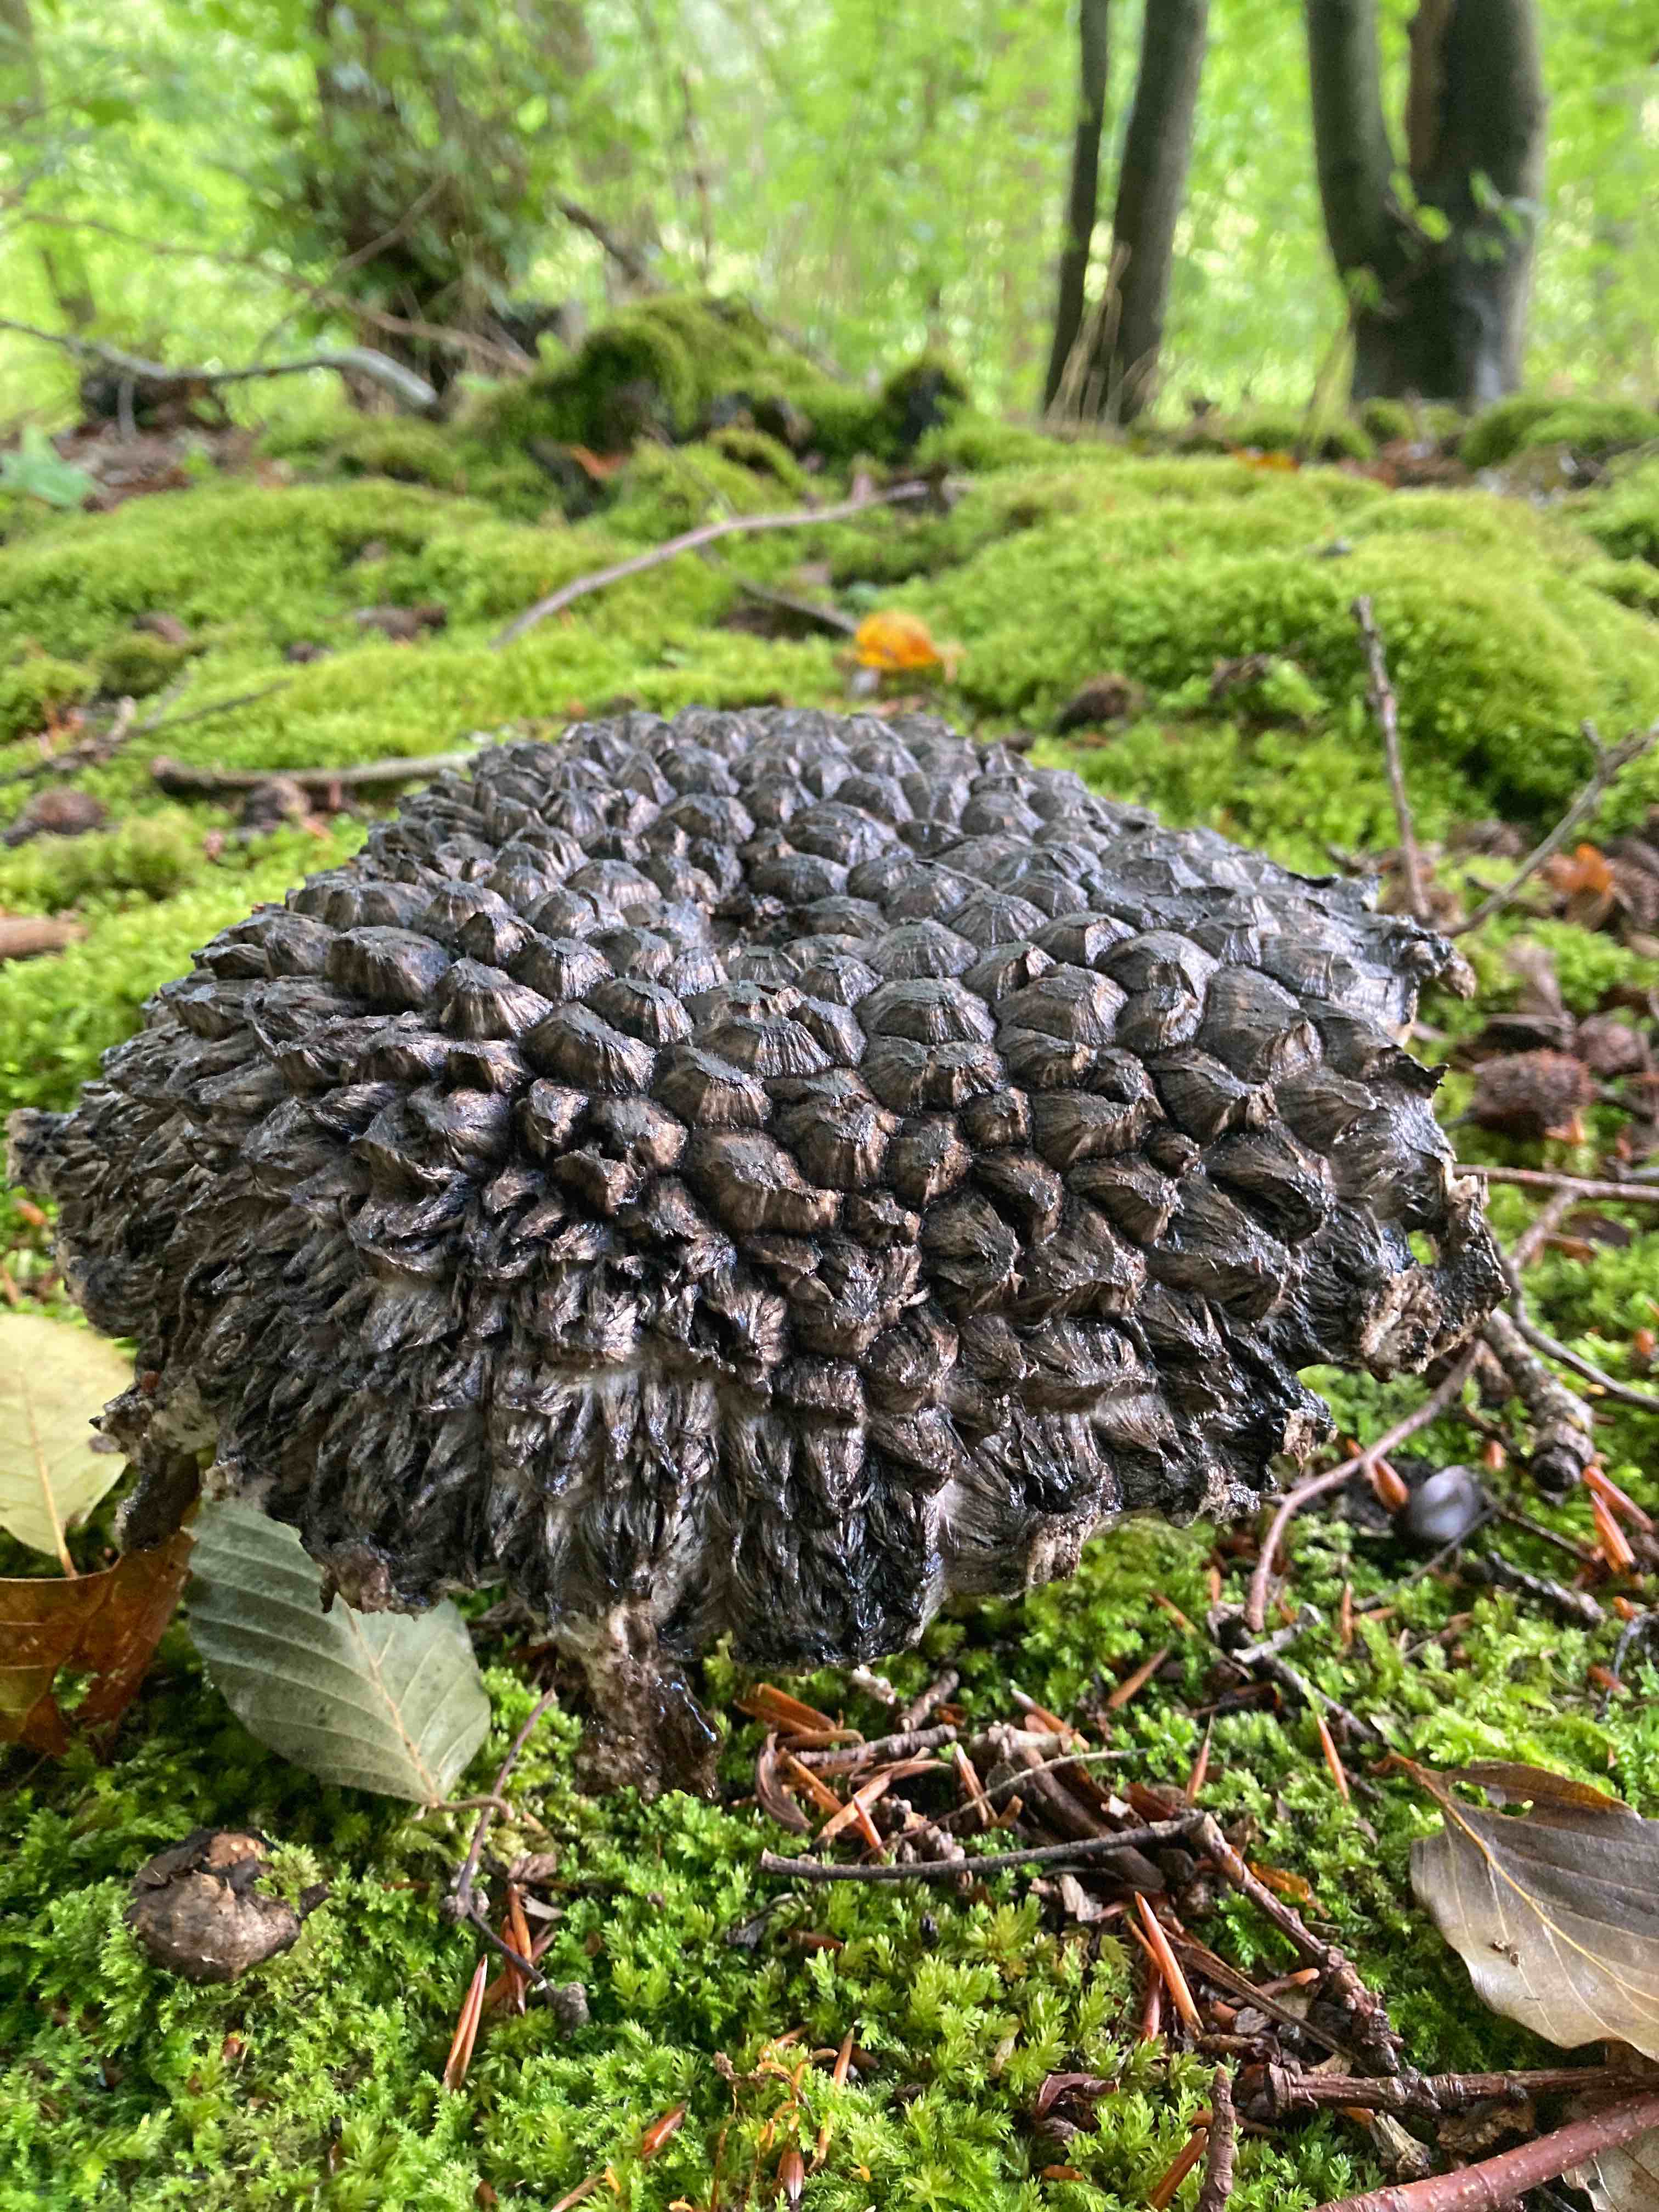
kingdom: Fungi
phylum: Basidiomycota
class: Agaricomycetes
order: Boletales
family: Boletaceae
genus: Strobilomyces
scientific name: Strobilomyces strobilaceus
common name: koglerørhat
